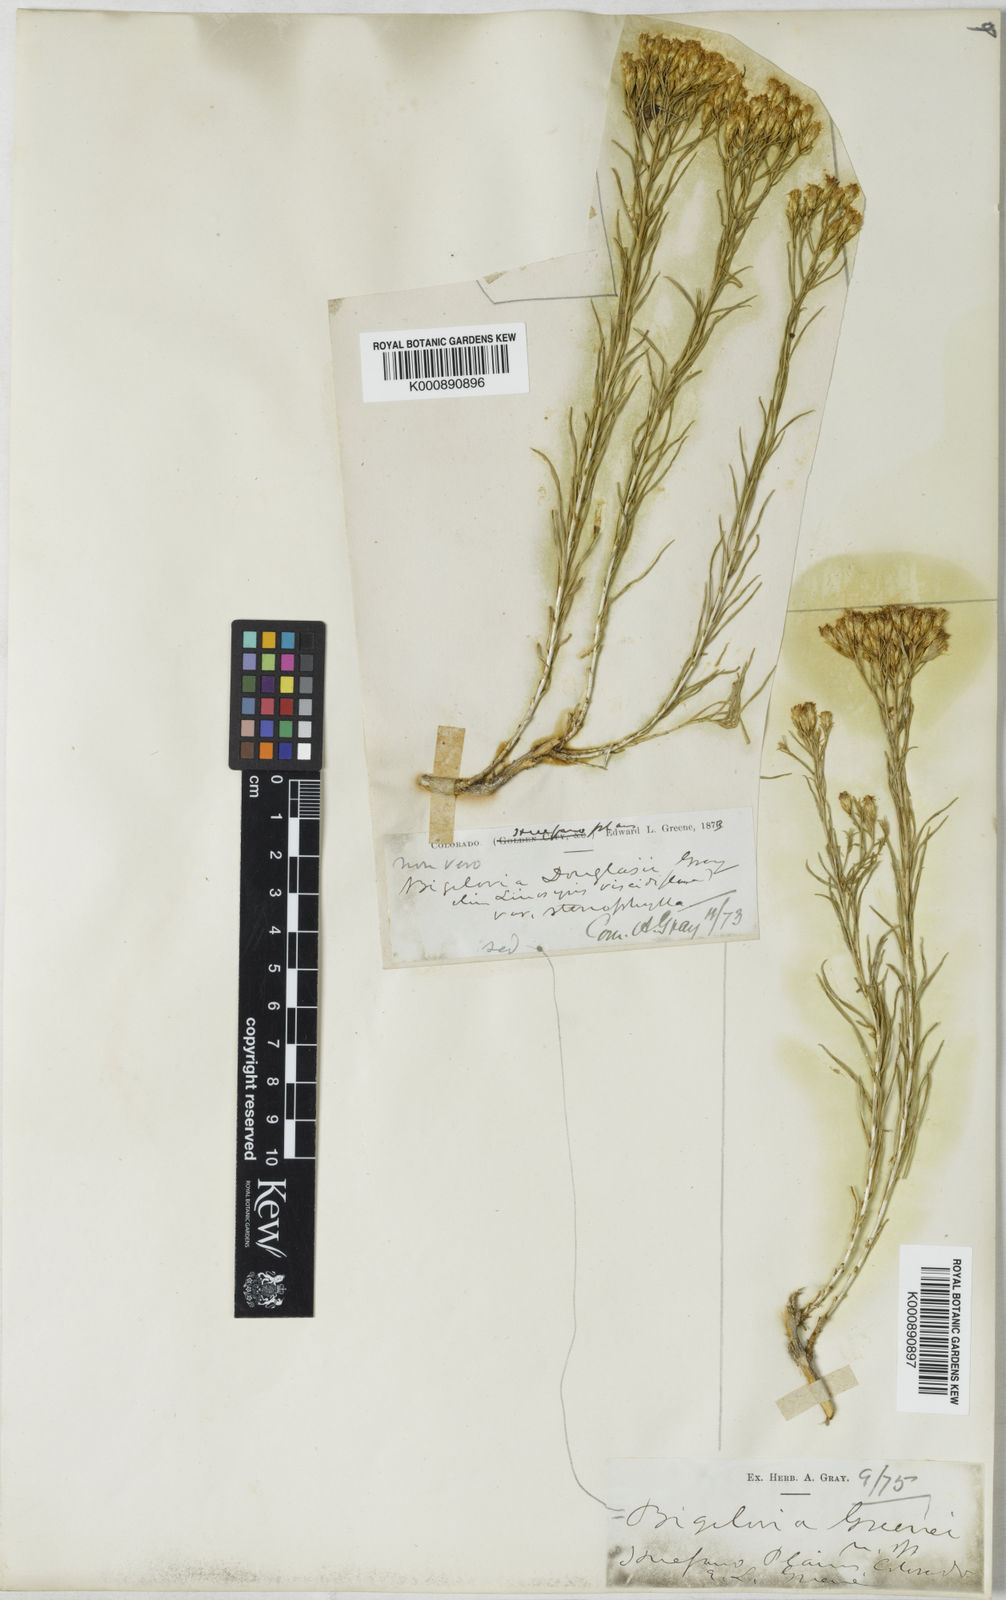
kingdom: Plantae
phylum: Tracheophyta
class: Magnoliopsida
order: Asterales
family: Asteraceae
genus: Chrysothamnus
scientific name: Chrysothamnus greenei
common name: Greene's rabbitbrush
